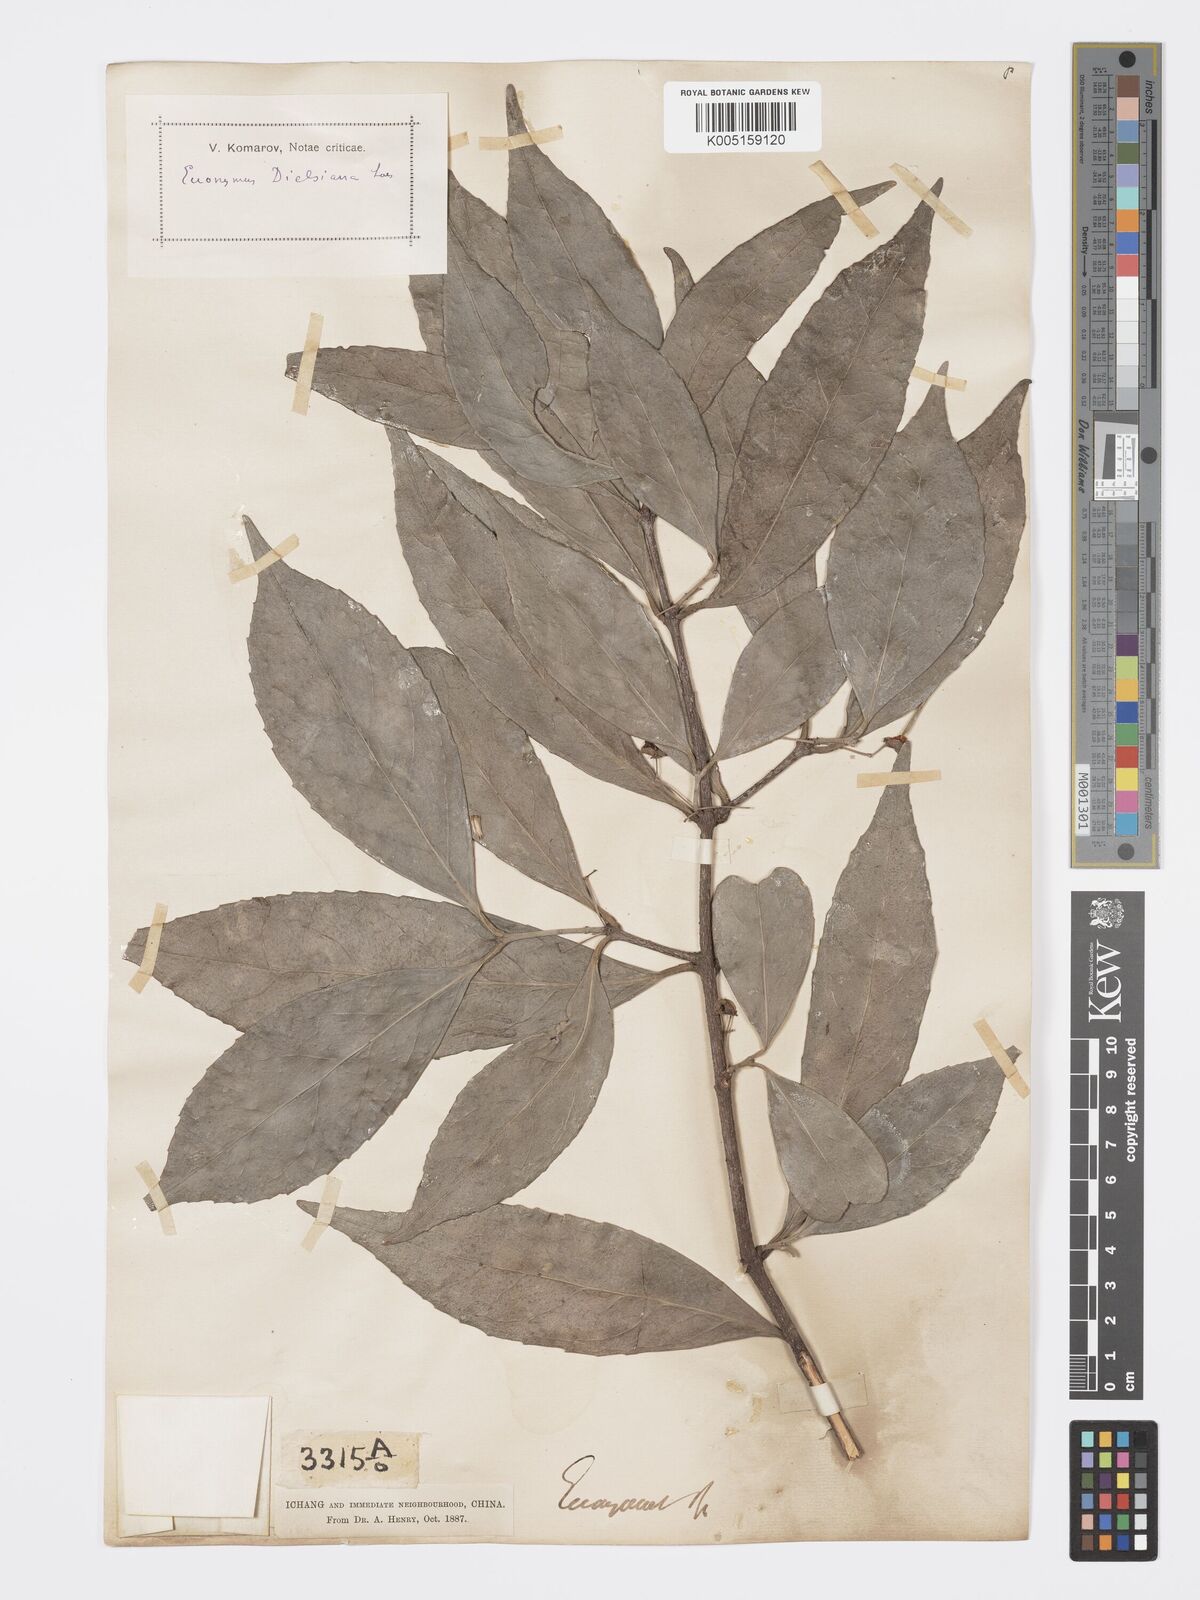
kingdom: Plantae
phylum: Tracheophyta
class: Magnoliopsida
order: Celastrales
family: Celastraceae
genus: Euonymus
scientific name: Euonymus dielsianus
